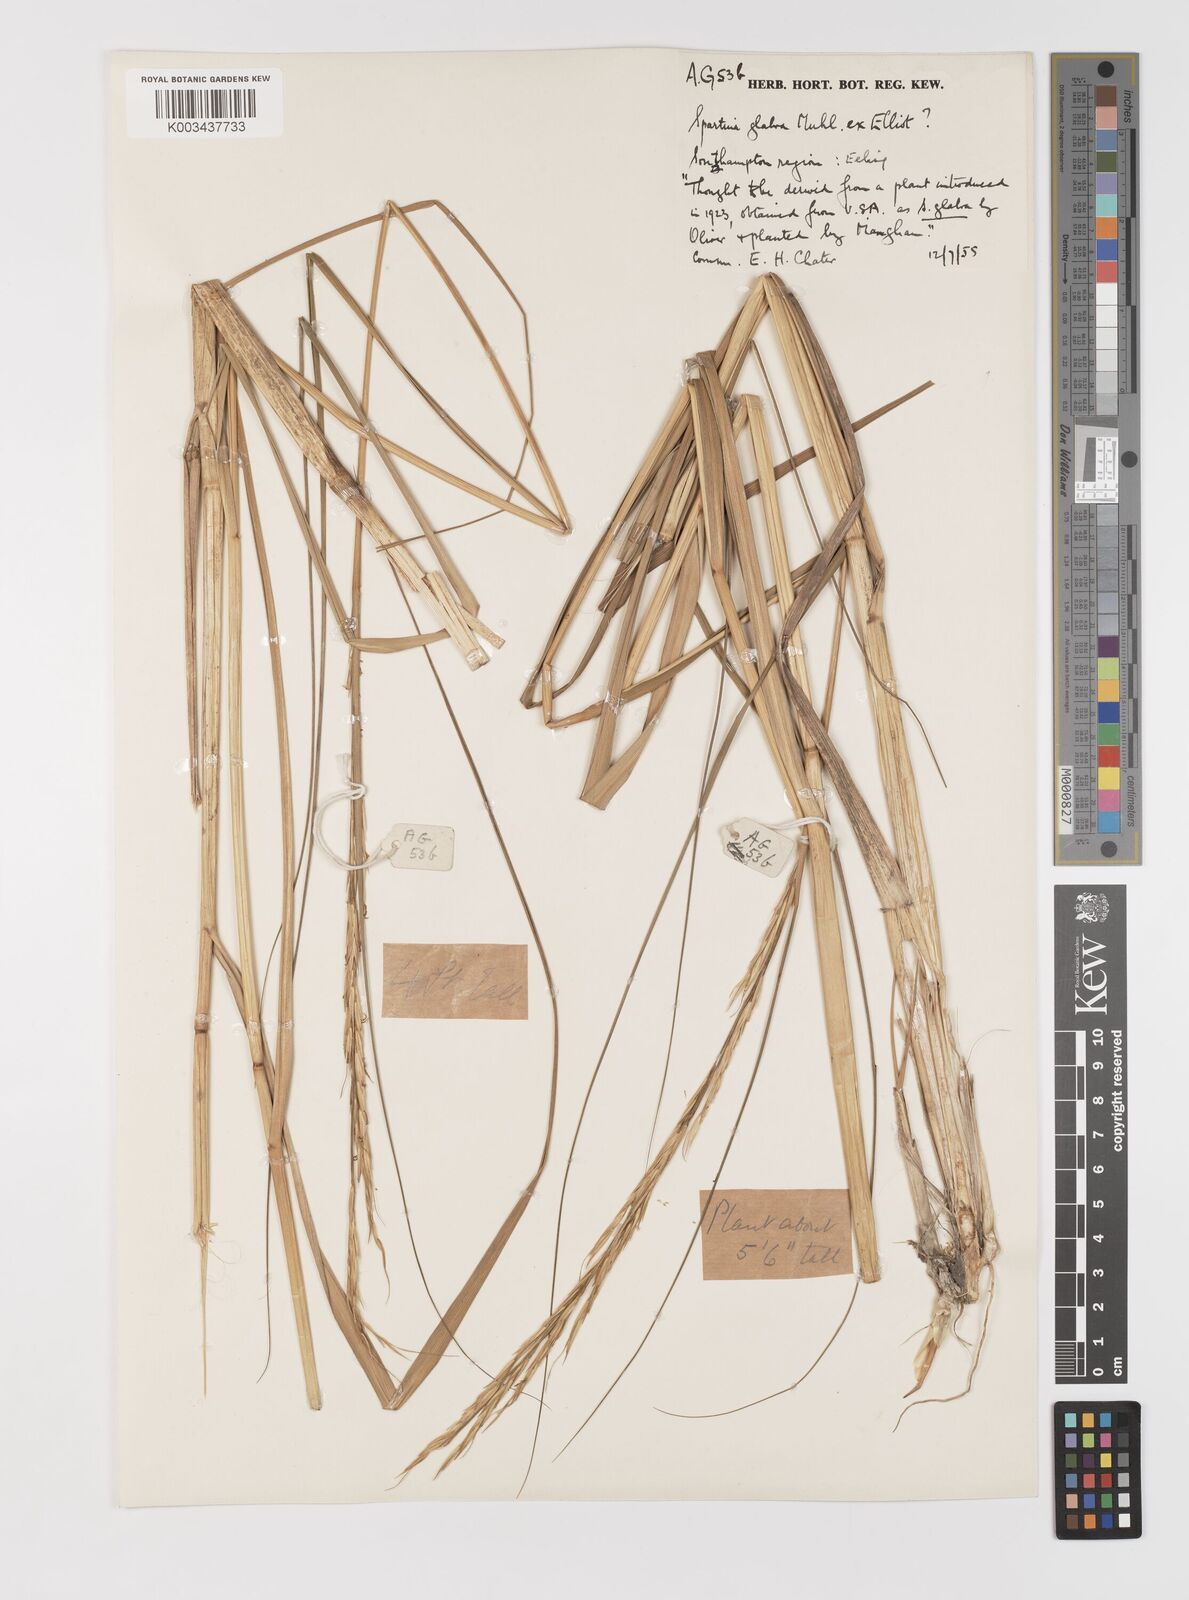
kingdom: Plantae
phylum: Tracheophyta
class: Liliopsida
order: Poales
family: Poaceae
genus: Sporobolus
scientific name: Sporobolus alterniflorus
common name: Atlantic cordgrass
